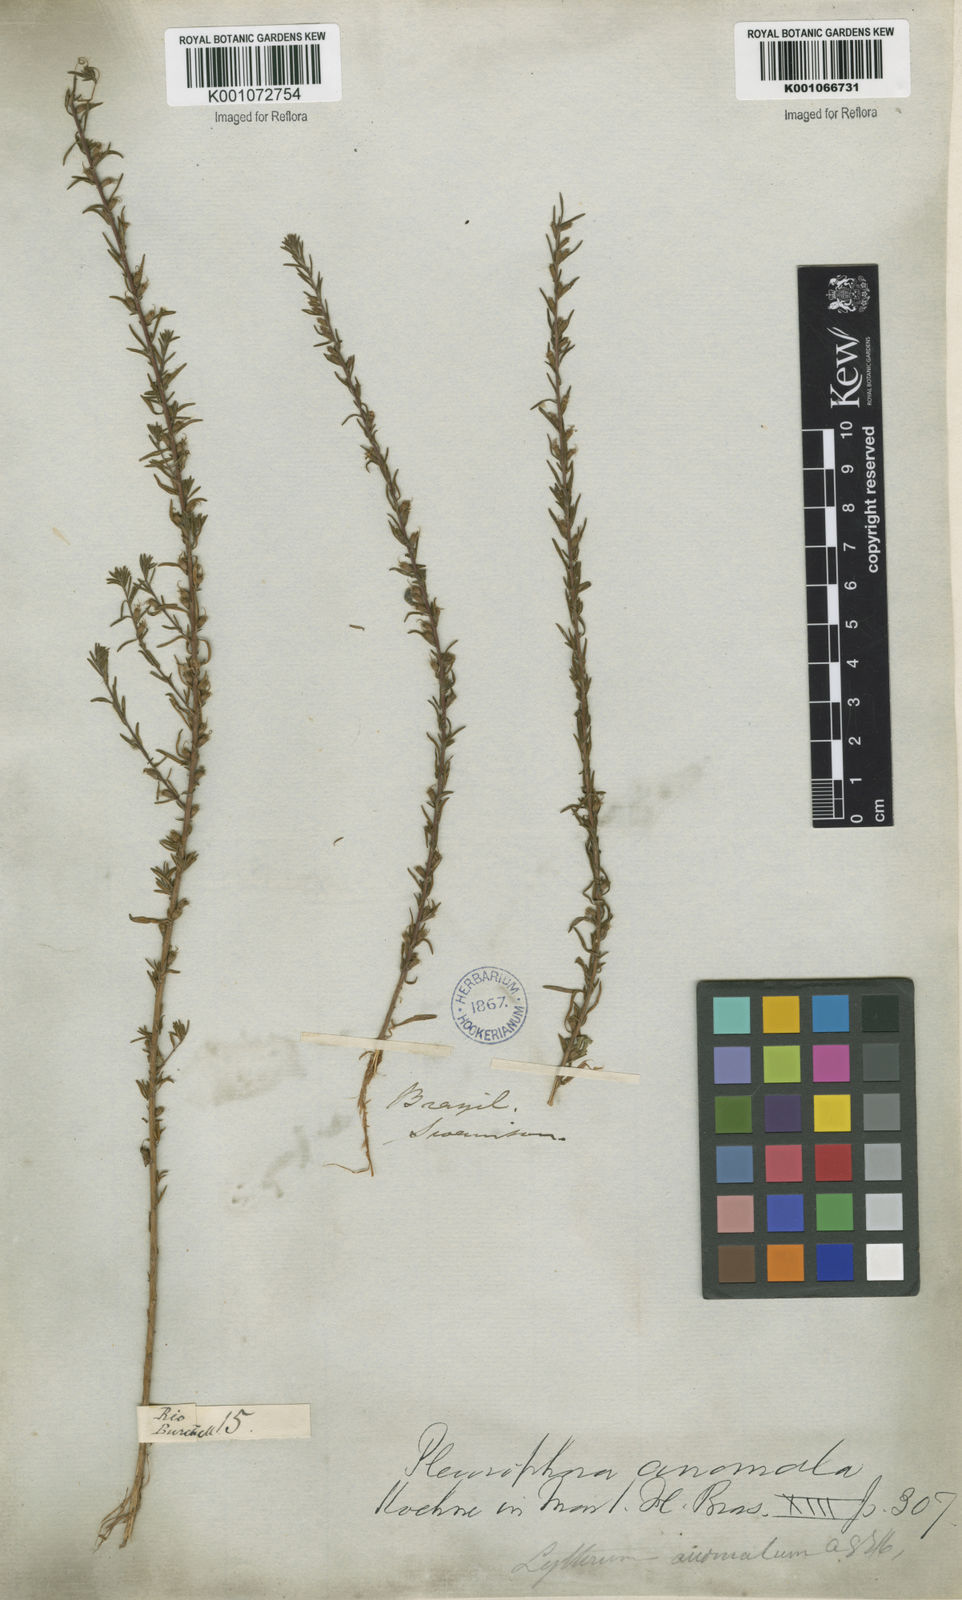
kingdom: Plantae
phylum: Tracheophyta
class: Magnoliopsida
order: Myrtales
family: Lythraceae
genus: Pleurophora
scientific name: Pleurophora anomala
